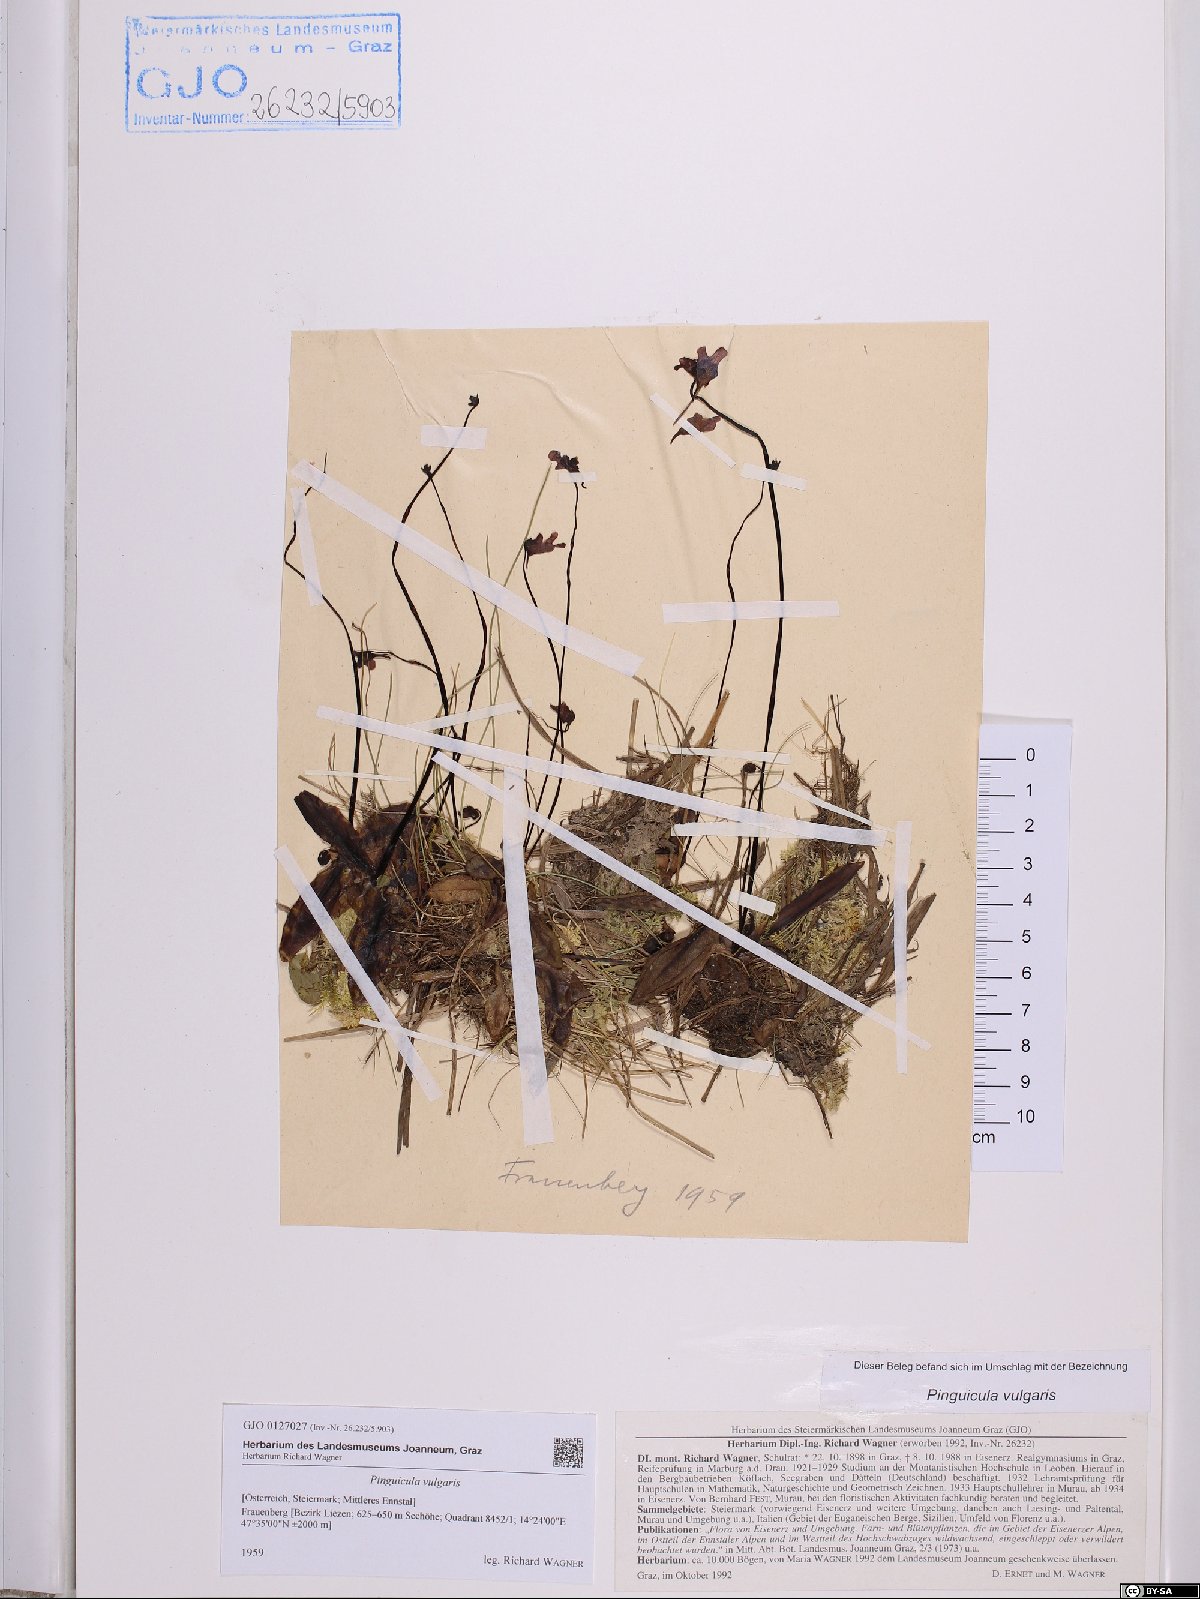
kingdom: Plantae
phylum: Tracheophyta
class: Magnoliopsida
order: Lamiales
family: Lentibulariaceae
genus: Pinguicula
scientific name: Pinguicula vulgaris
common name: Common butterwort
